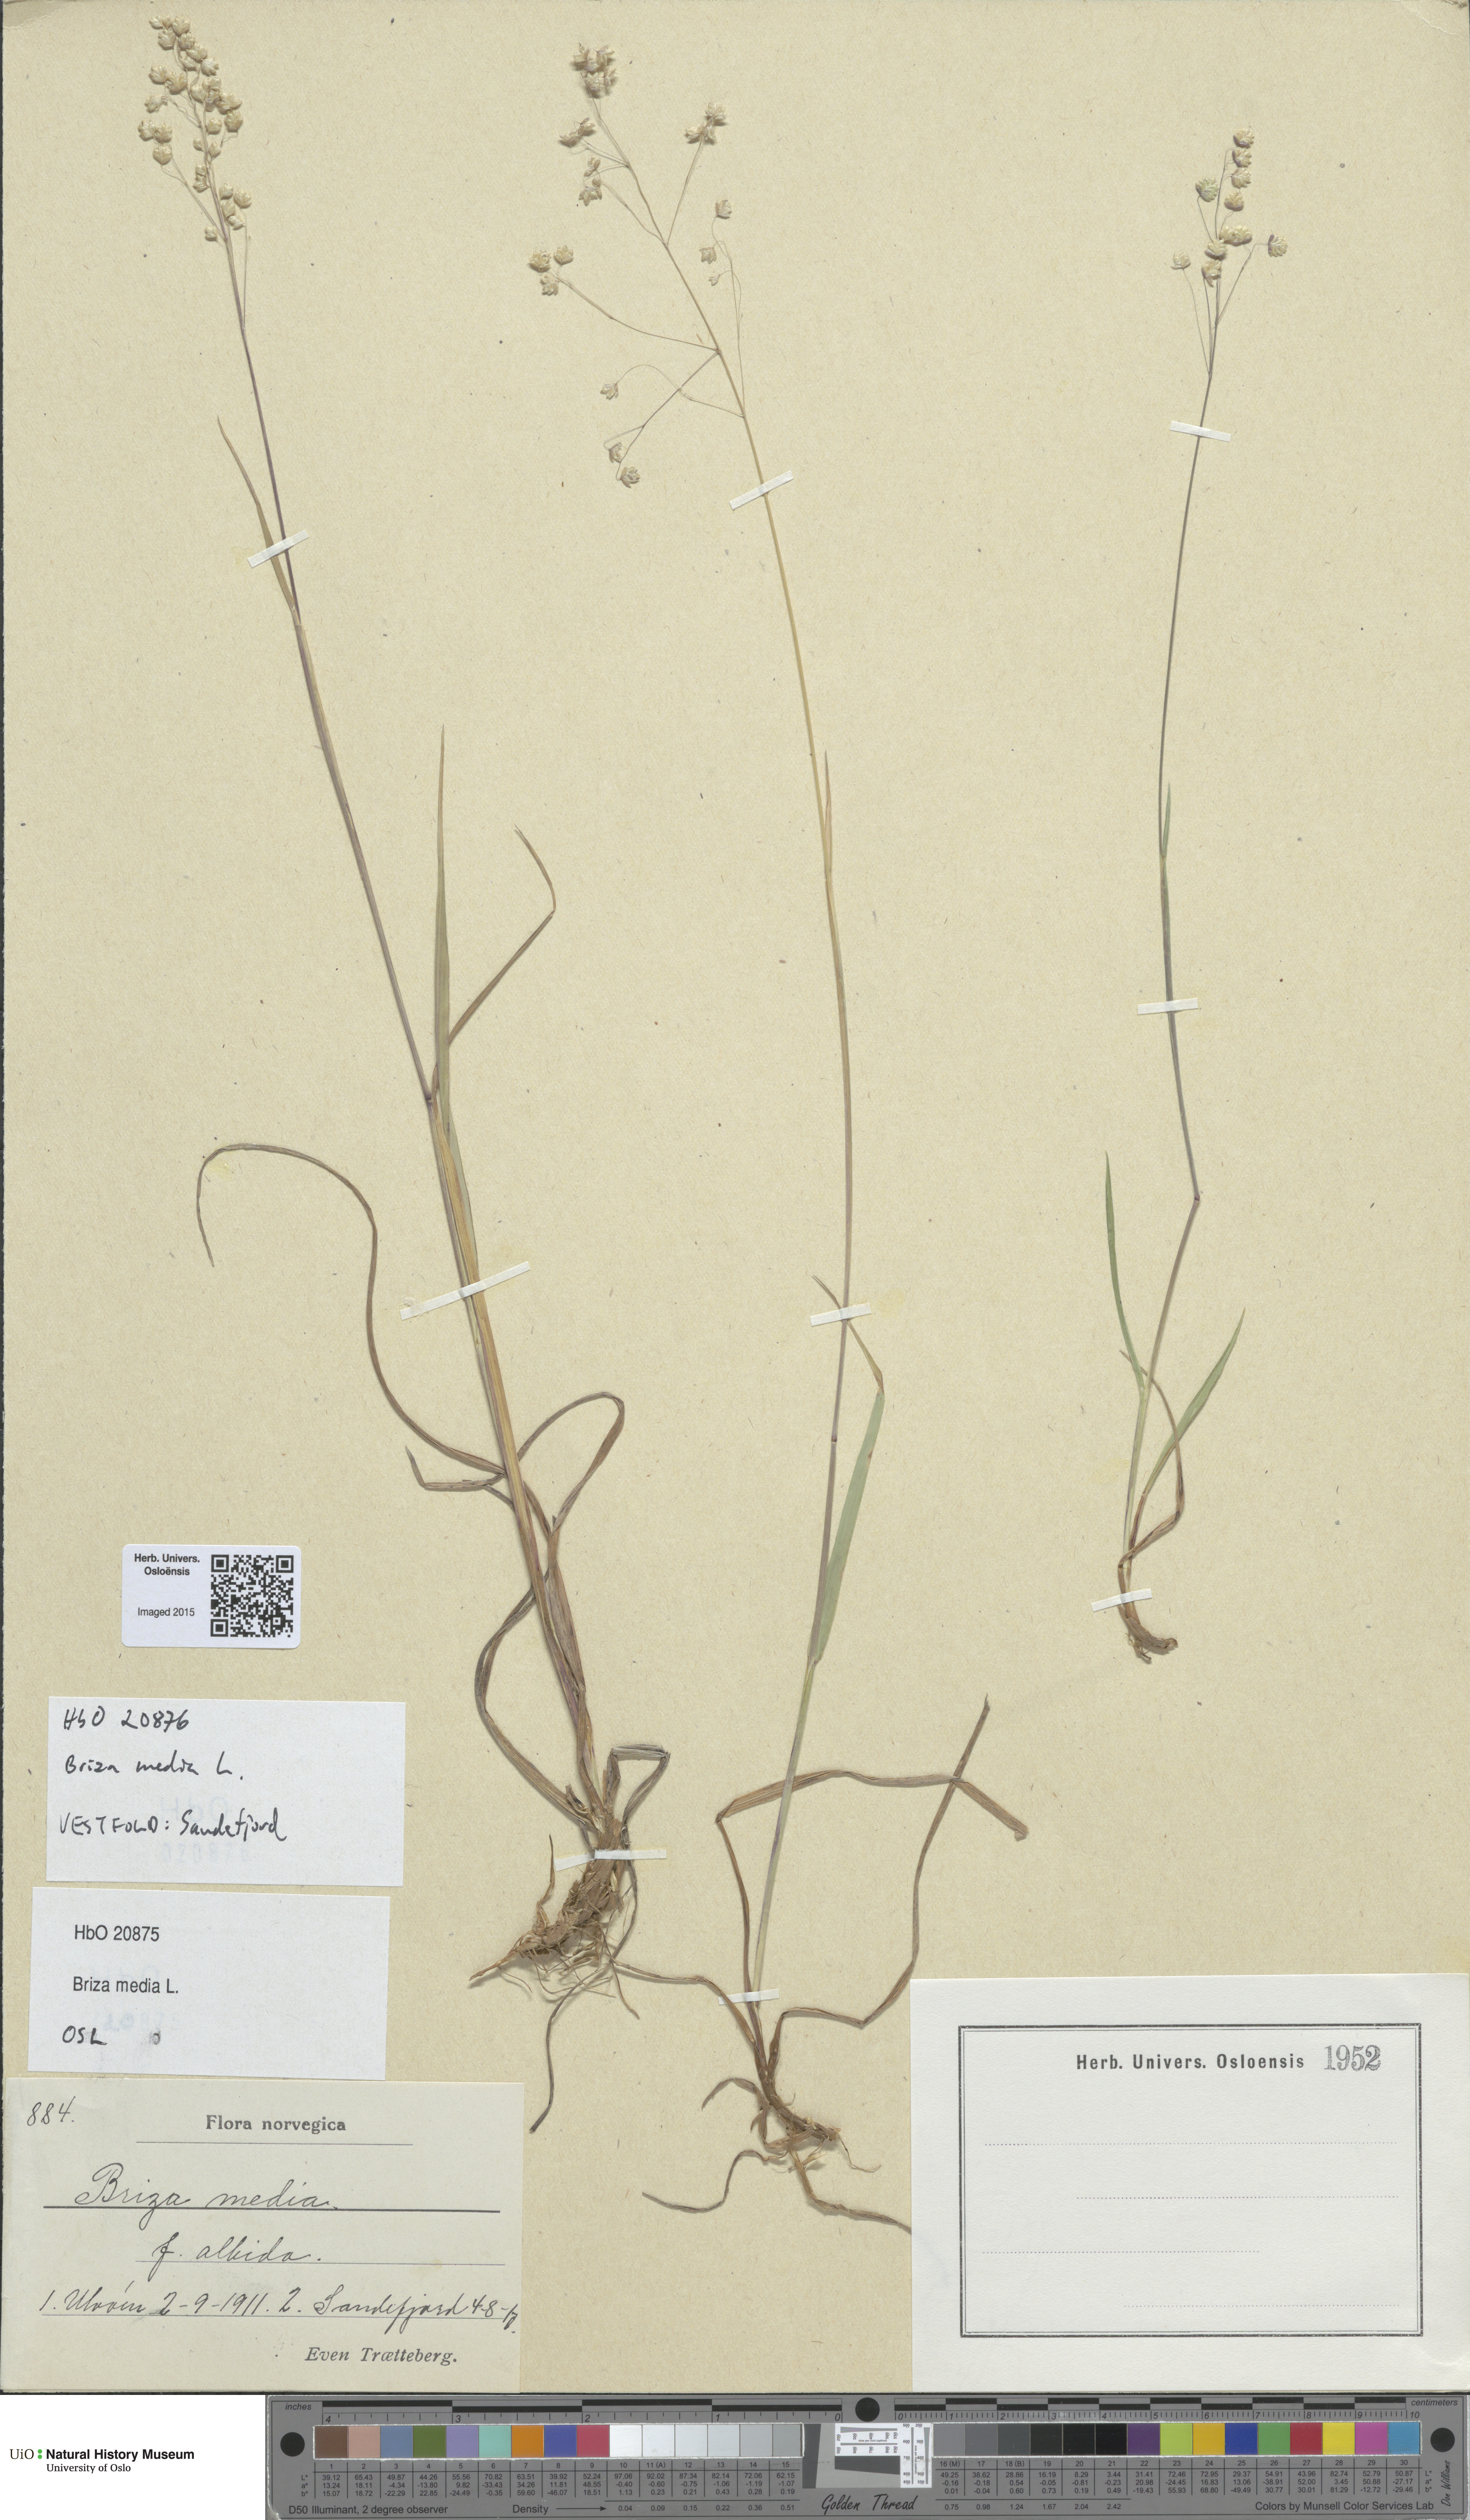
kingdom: Plantae
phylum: Tracheophyta
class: Liliopsida
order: Poales
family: Poaceae
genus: Briza
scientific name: Briza media
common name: Quaking grass
